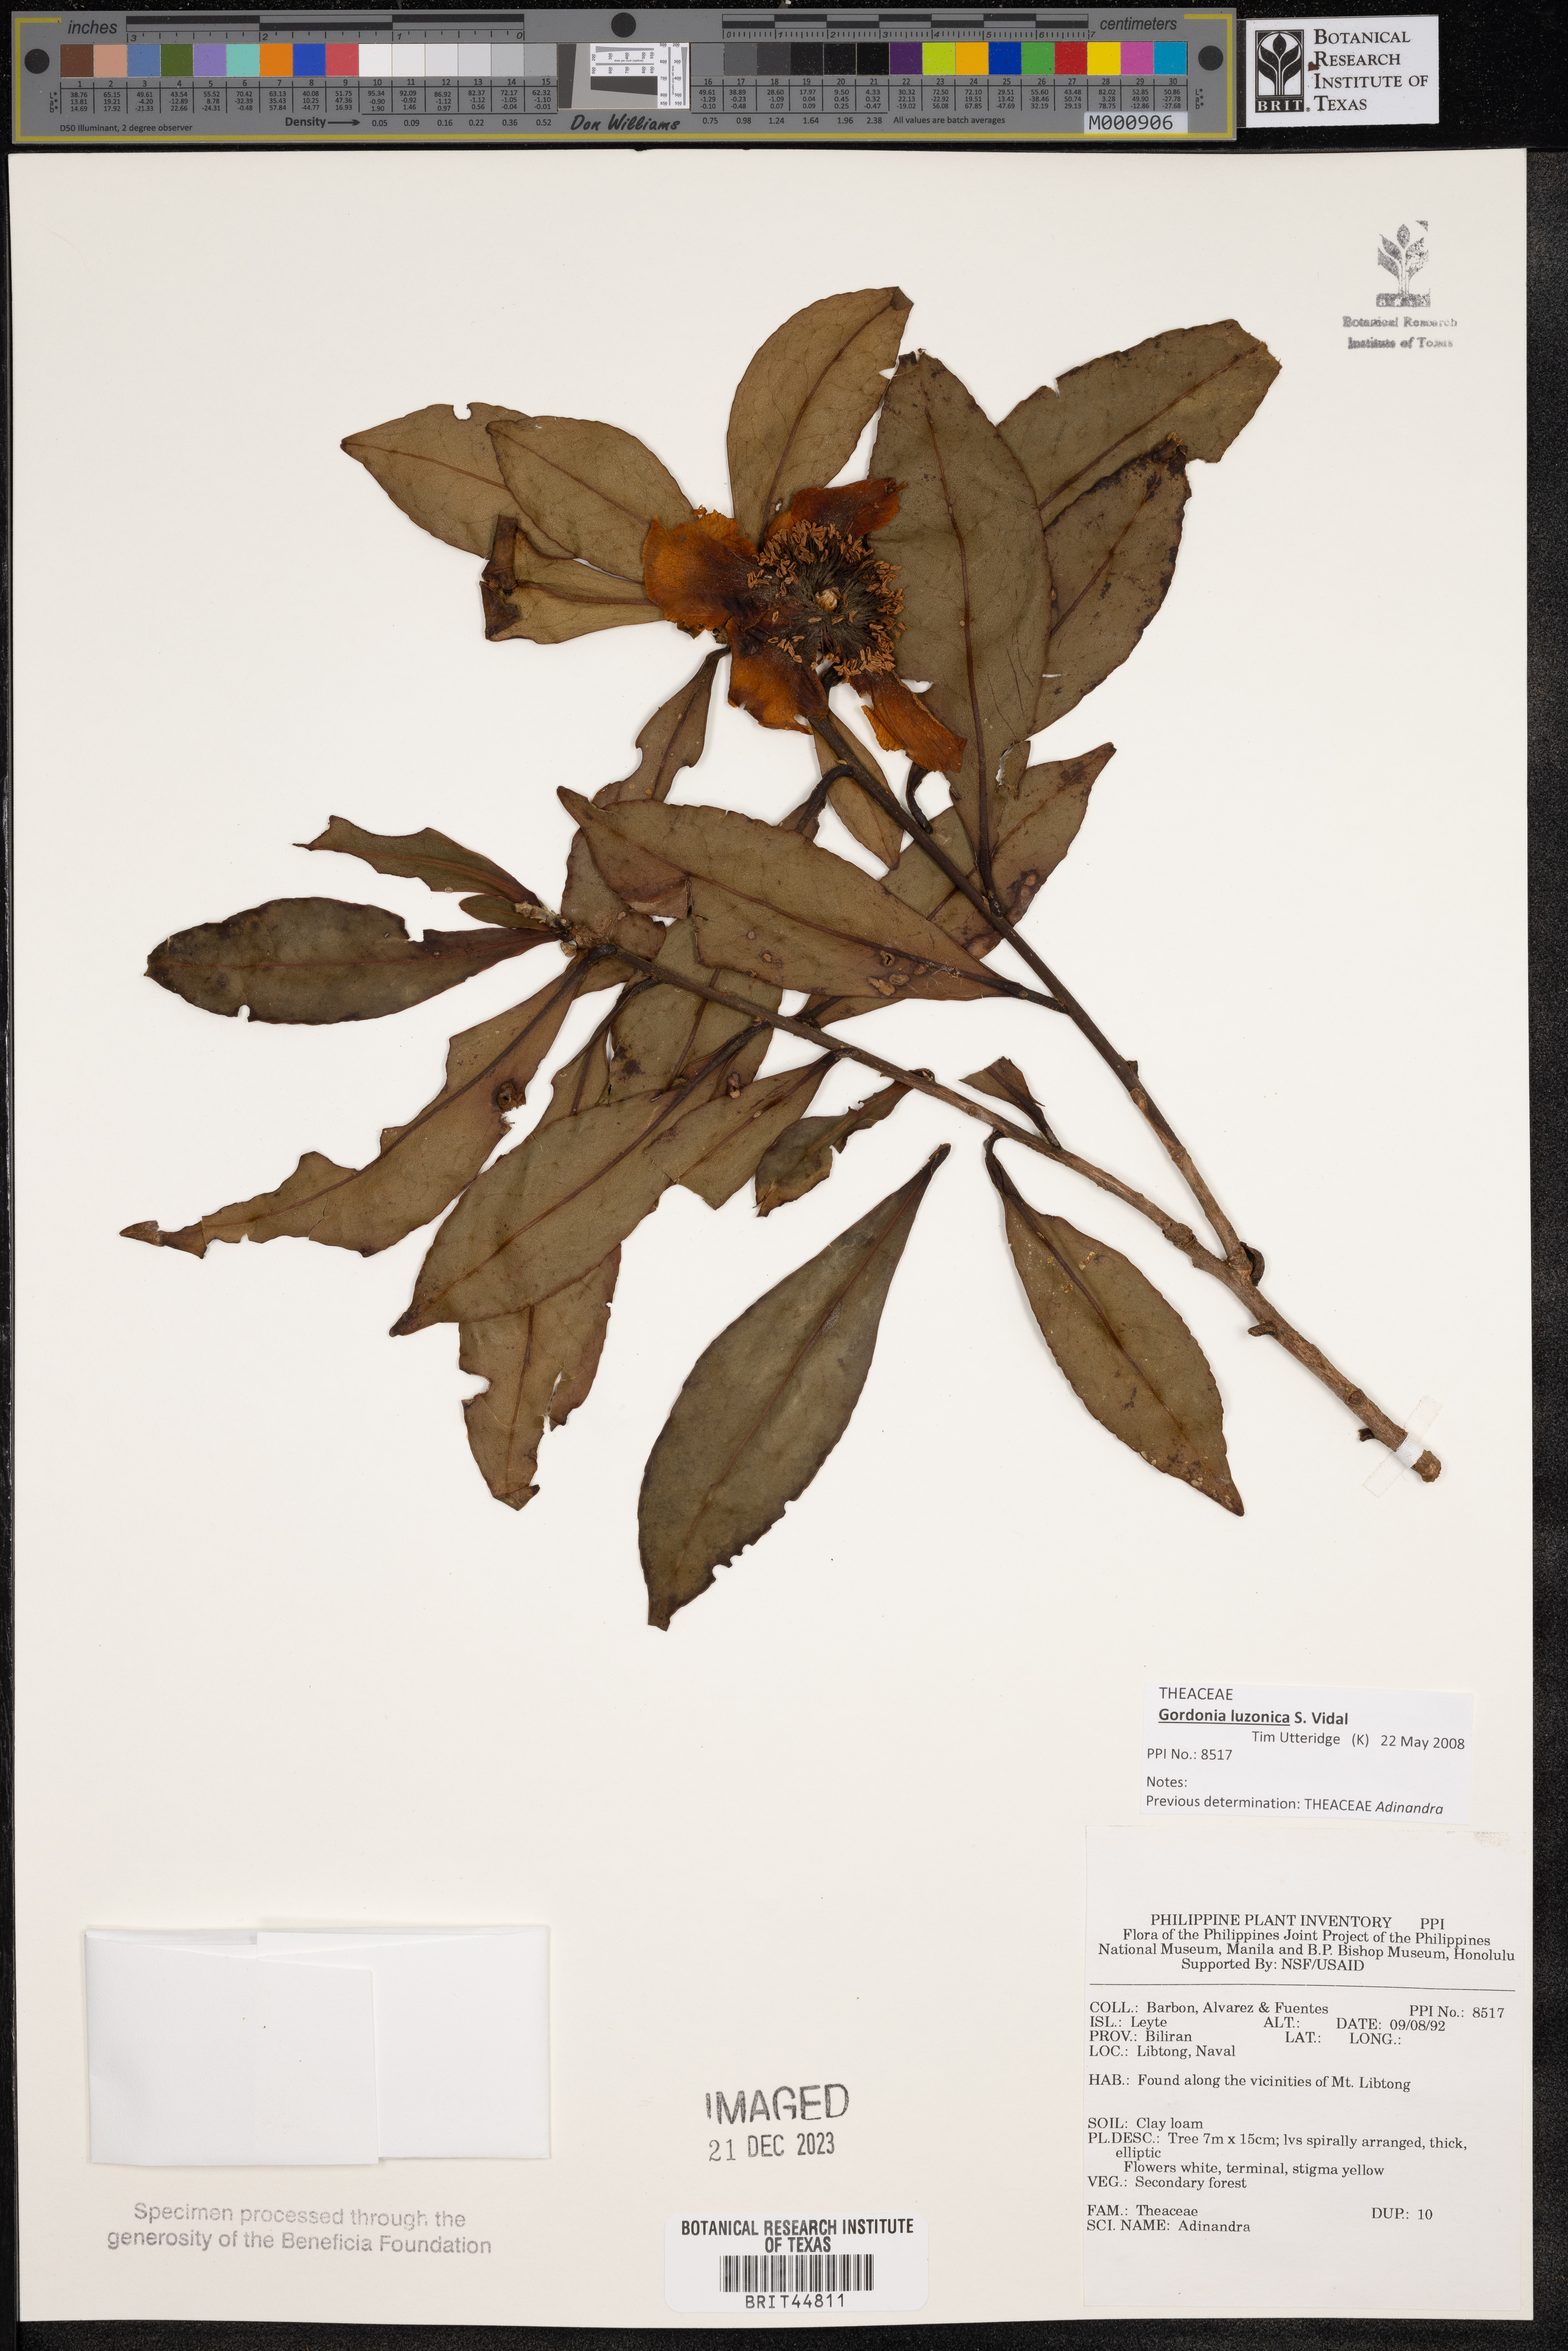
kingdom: Plantae
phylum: Tracheophyta
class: Magnoliopsida
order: Ericales
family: Pentaphylacaceae
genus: Adinandra
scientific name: Adinandra
